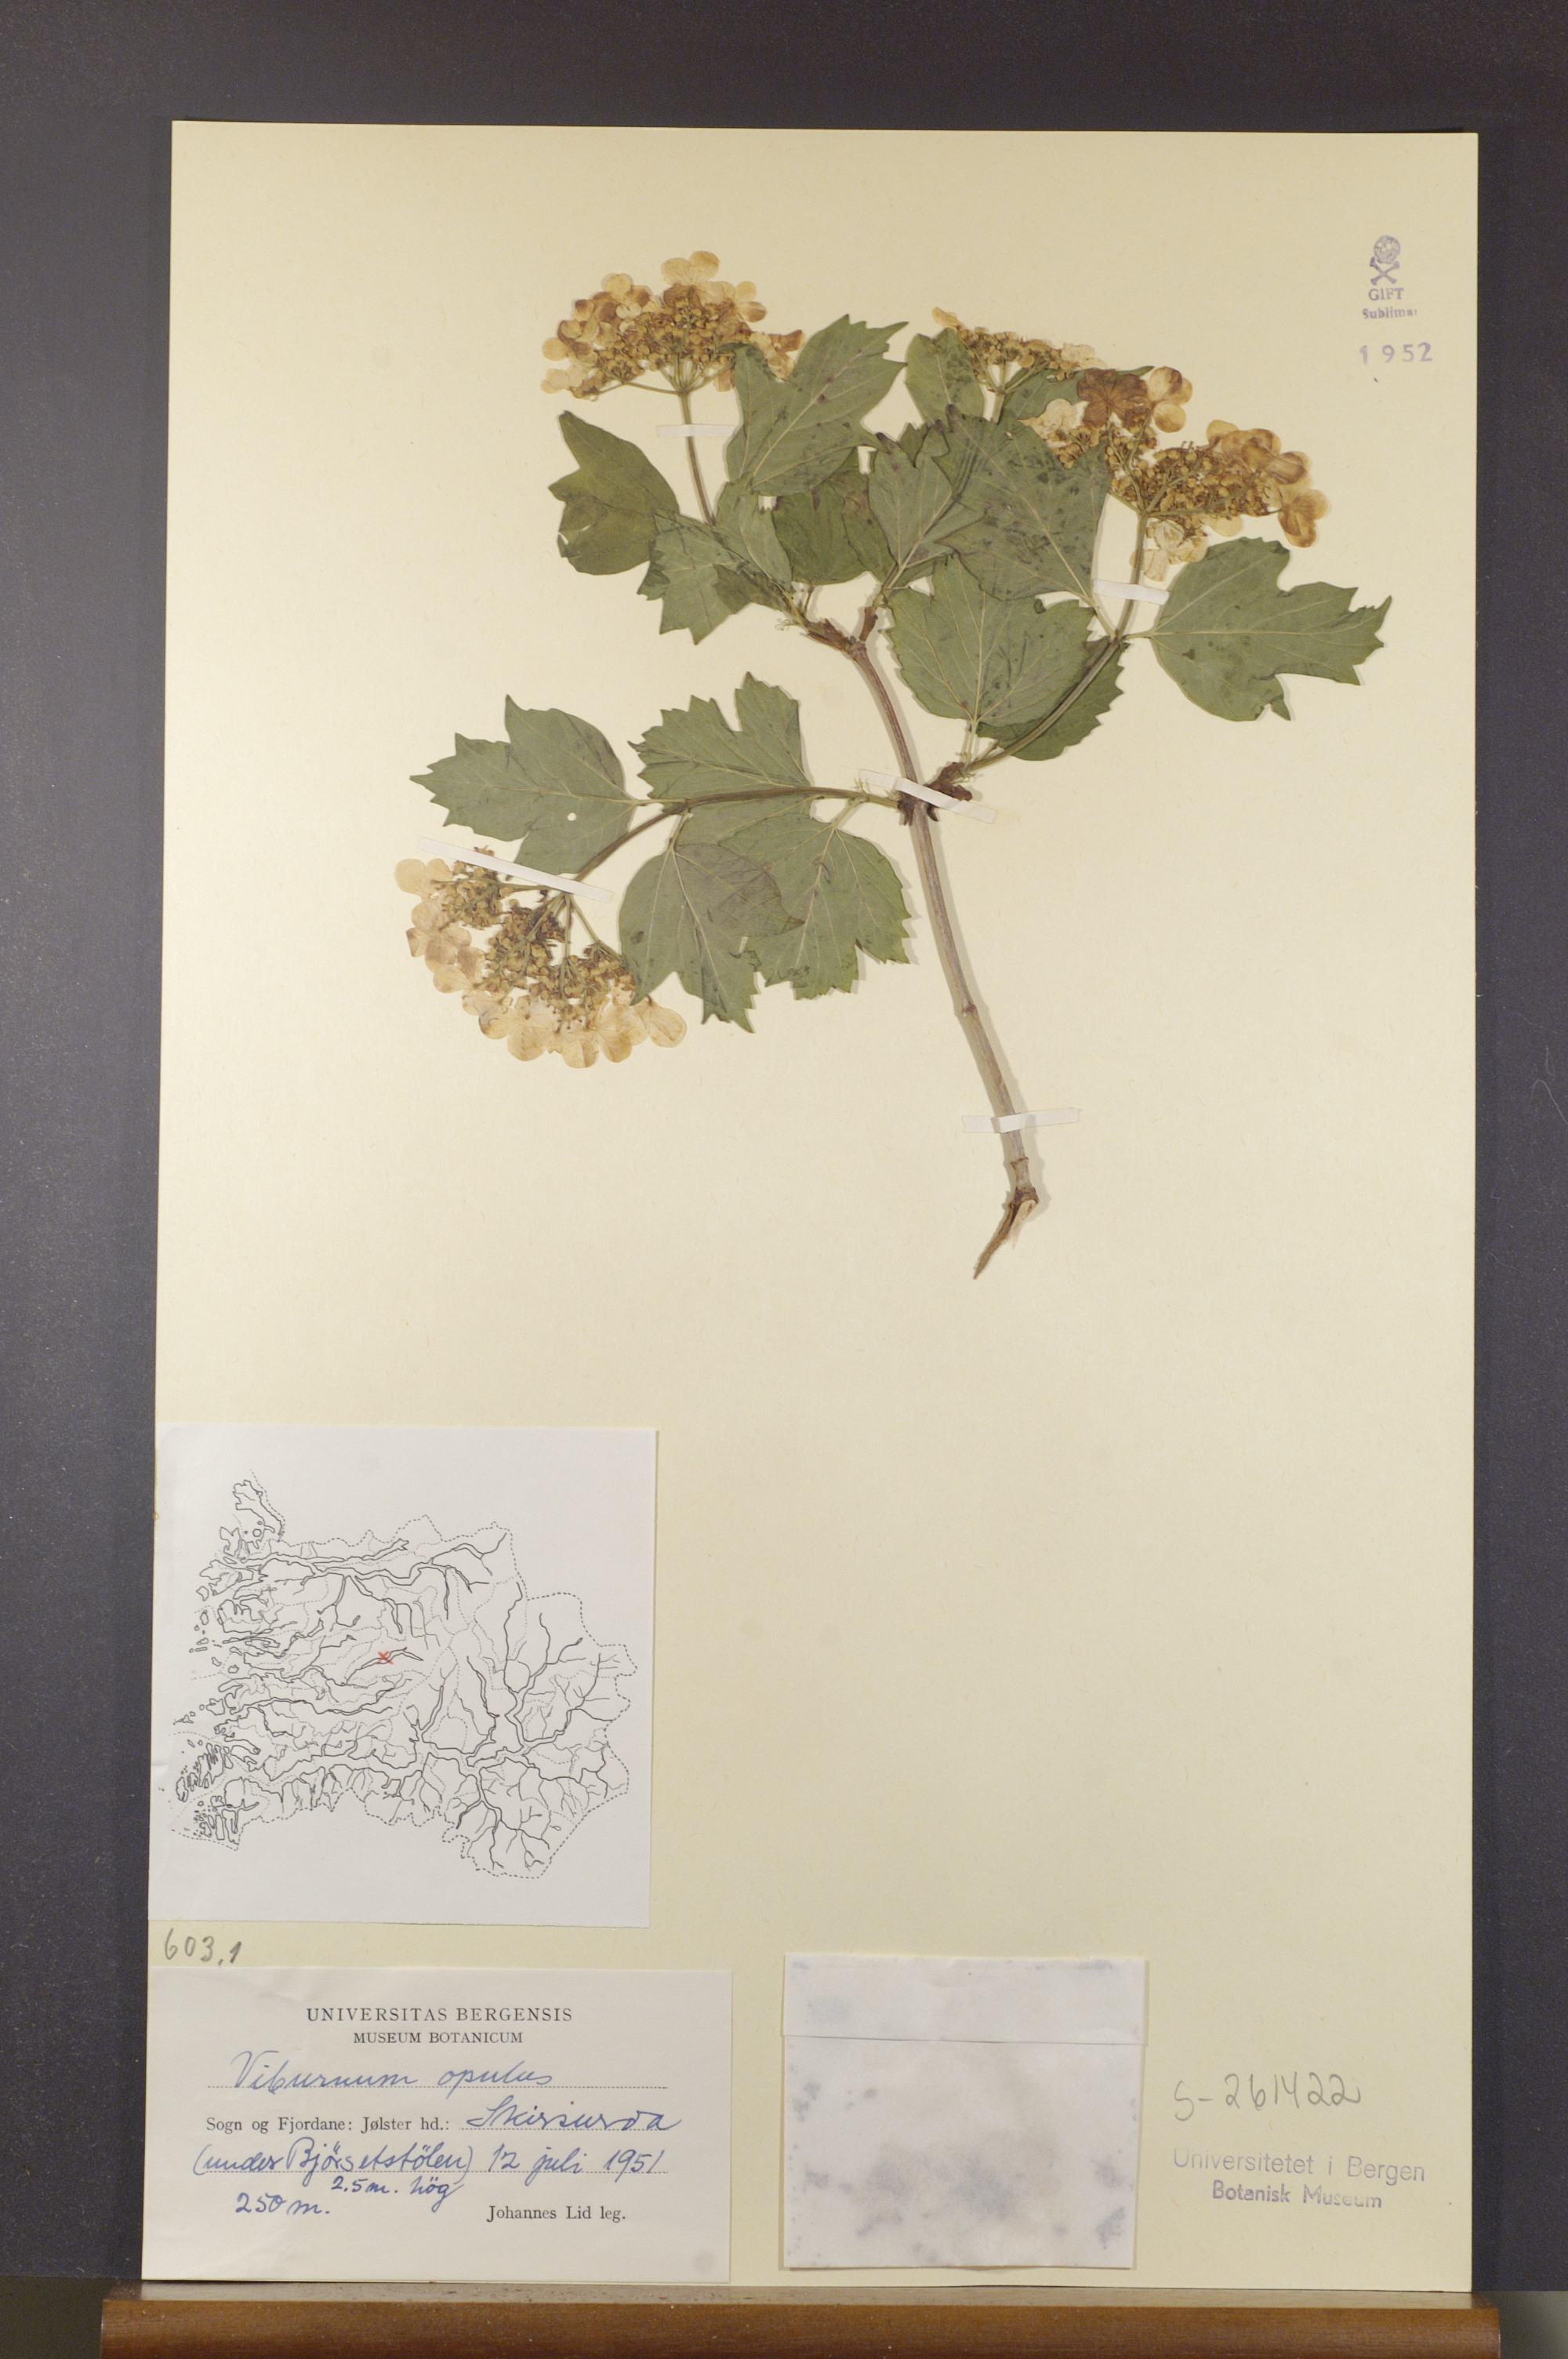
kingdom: Plantae
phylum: Tracheophyta
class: Magnoliopsida
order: Dipsacales
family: Viburnaceae
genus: Viburnum
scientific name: Viburnum opulus
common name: Guelder-rose
